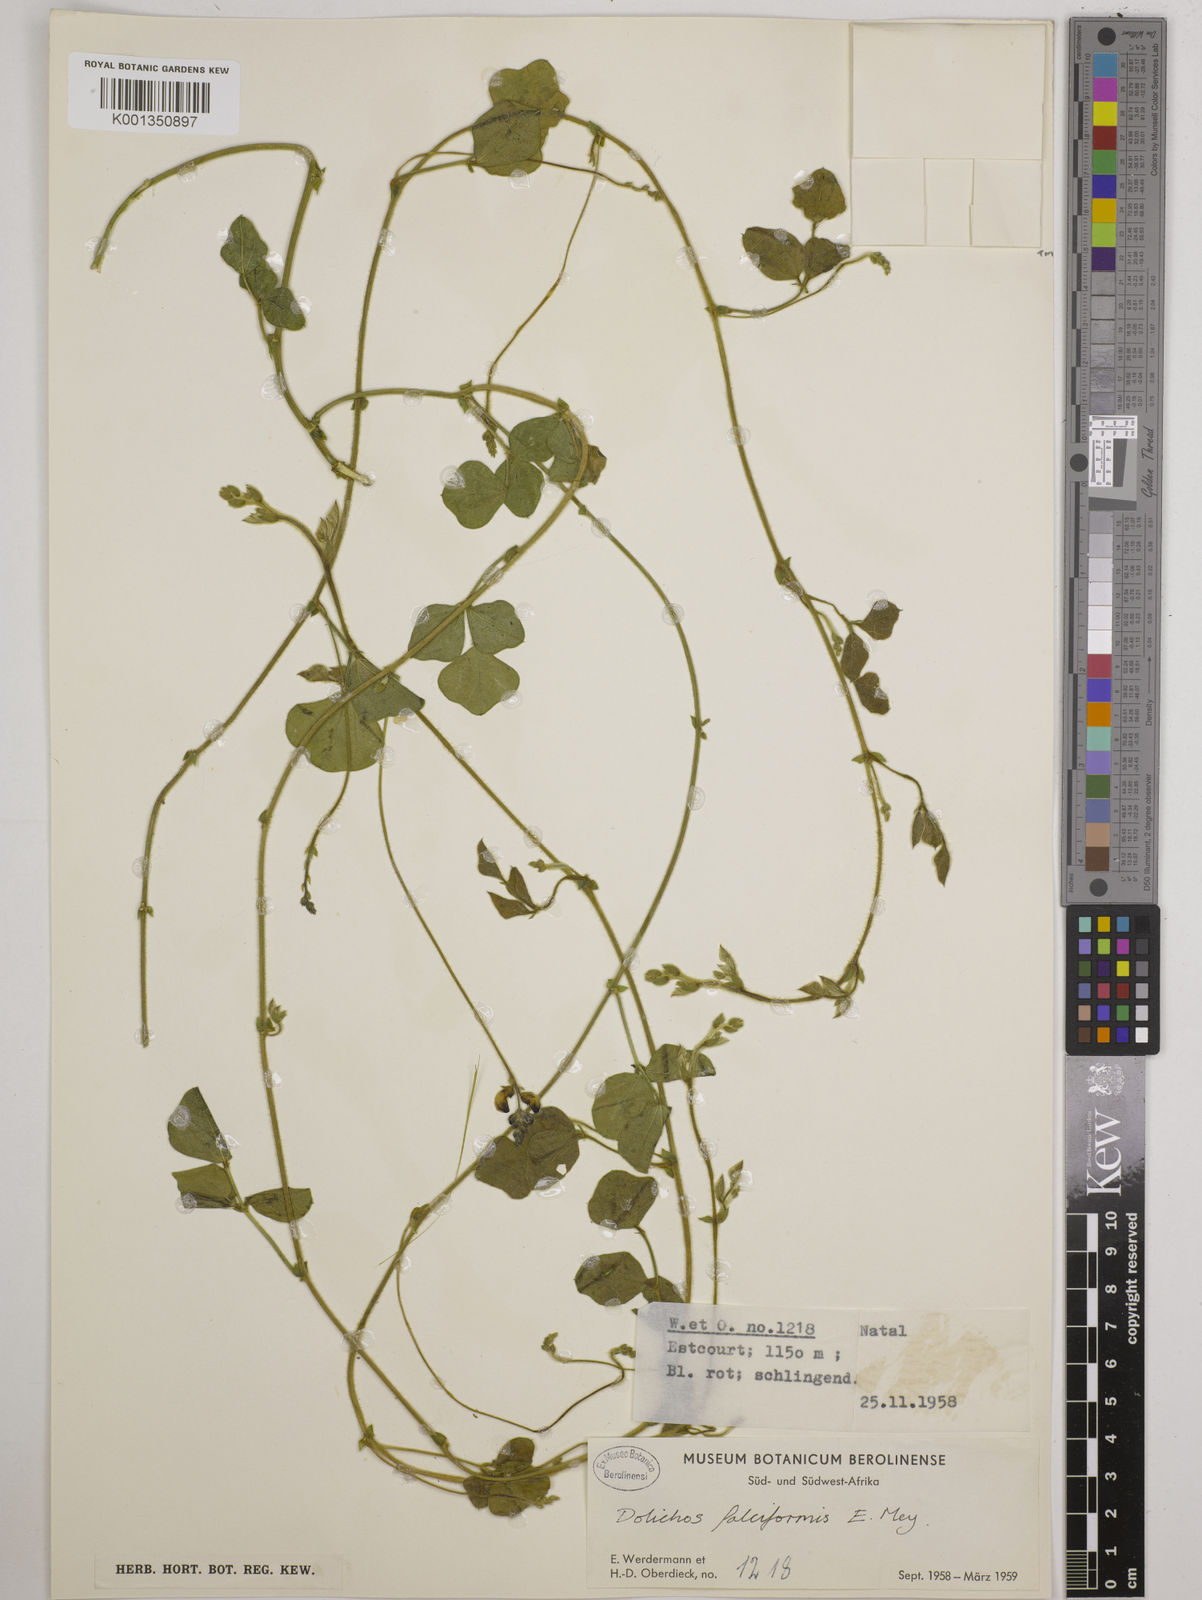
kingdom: Plantae
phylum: Tracheophyta
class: Magnoliopsida
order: Fabales
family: Fabaceae
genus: Dolichos
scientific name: Dolichos falciformis
